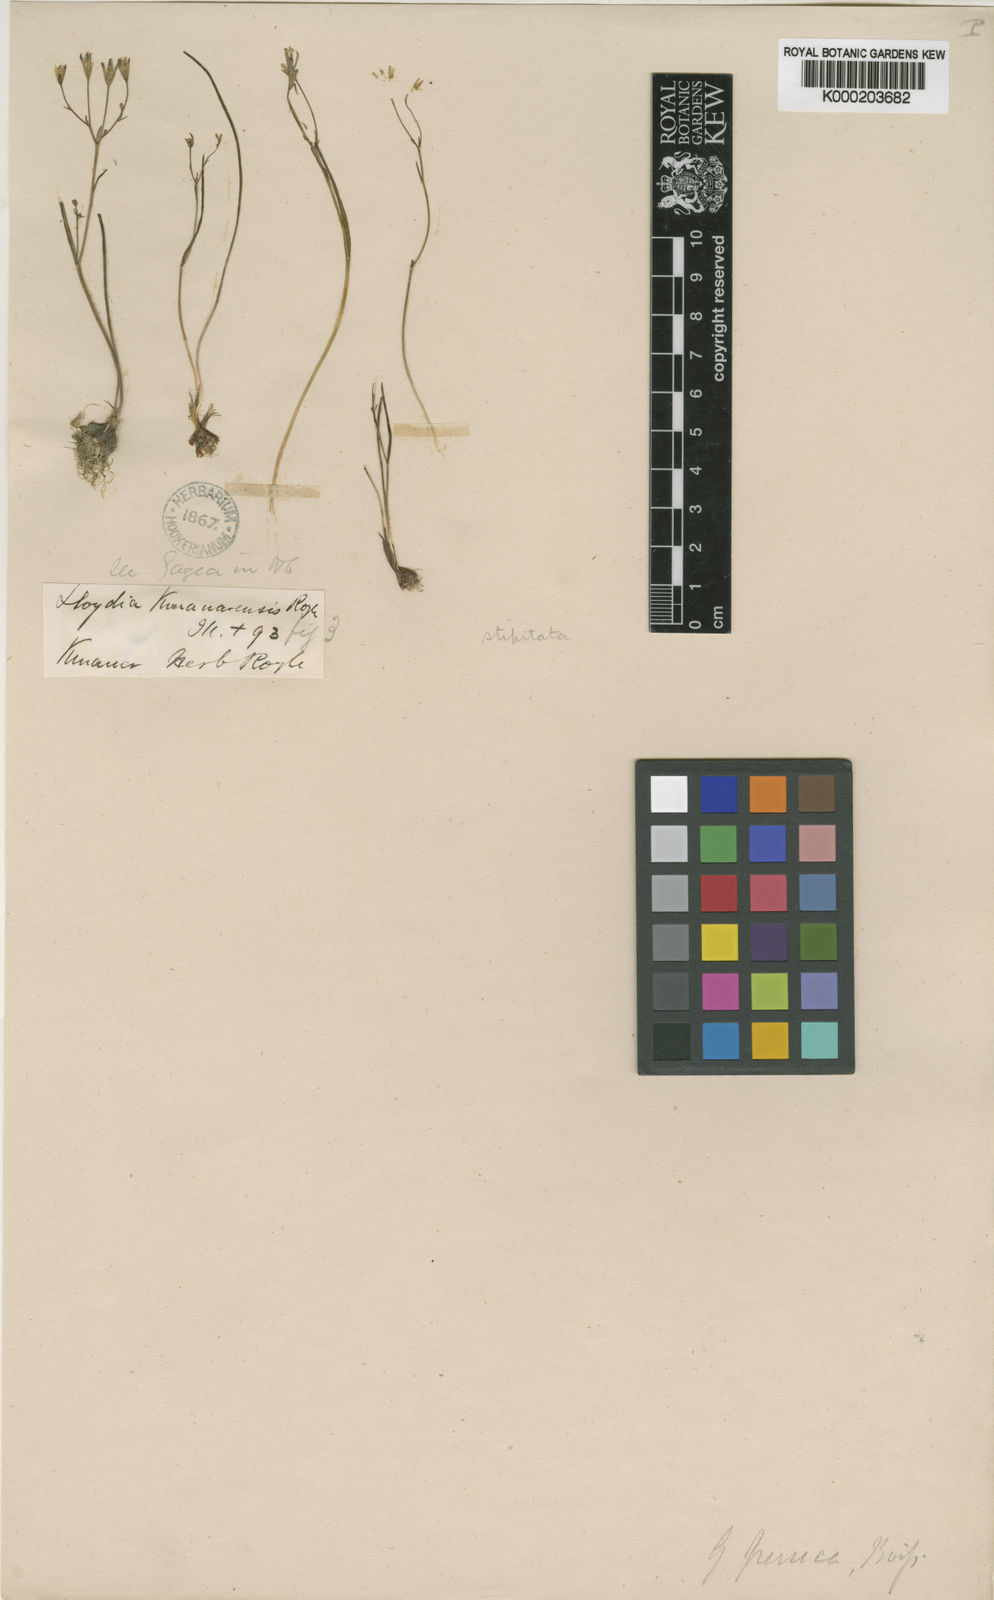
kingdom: Plantae
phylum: Tracheophyta
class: Liliopsida
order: Liliales
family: Liliaceae
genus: Gagea
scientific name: Gagea kunawurensis
